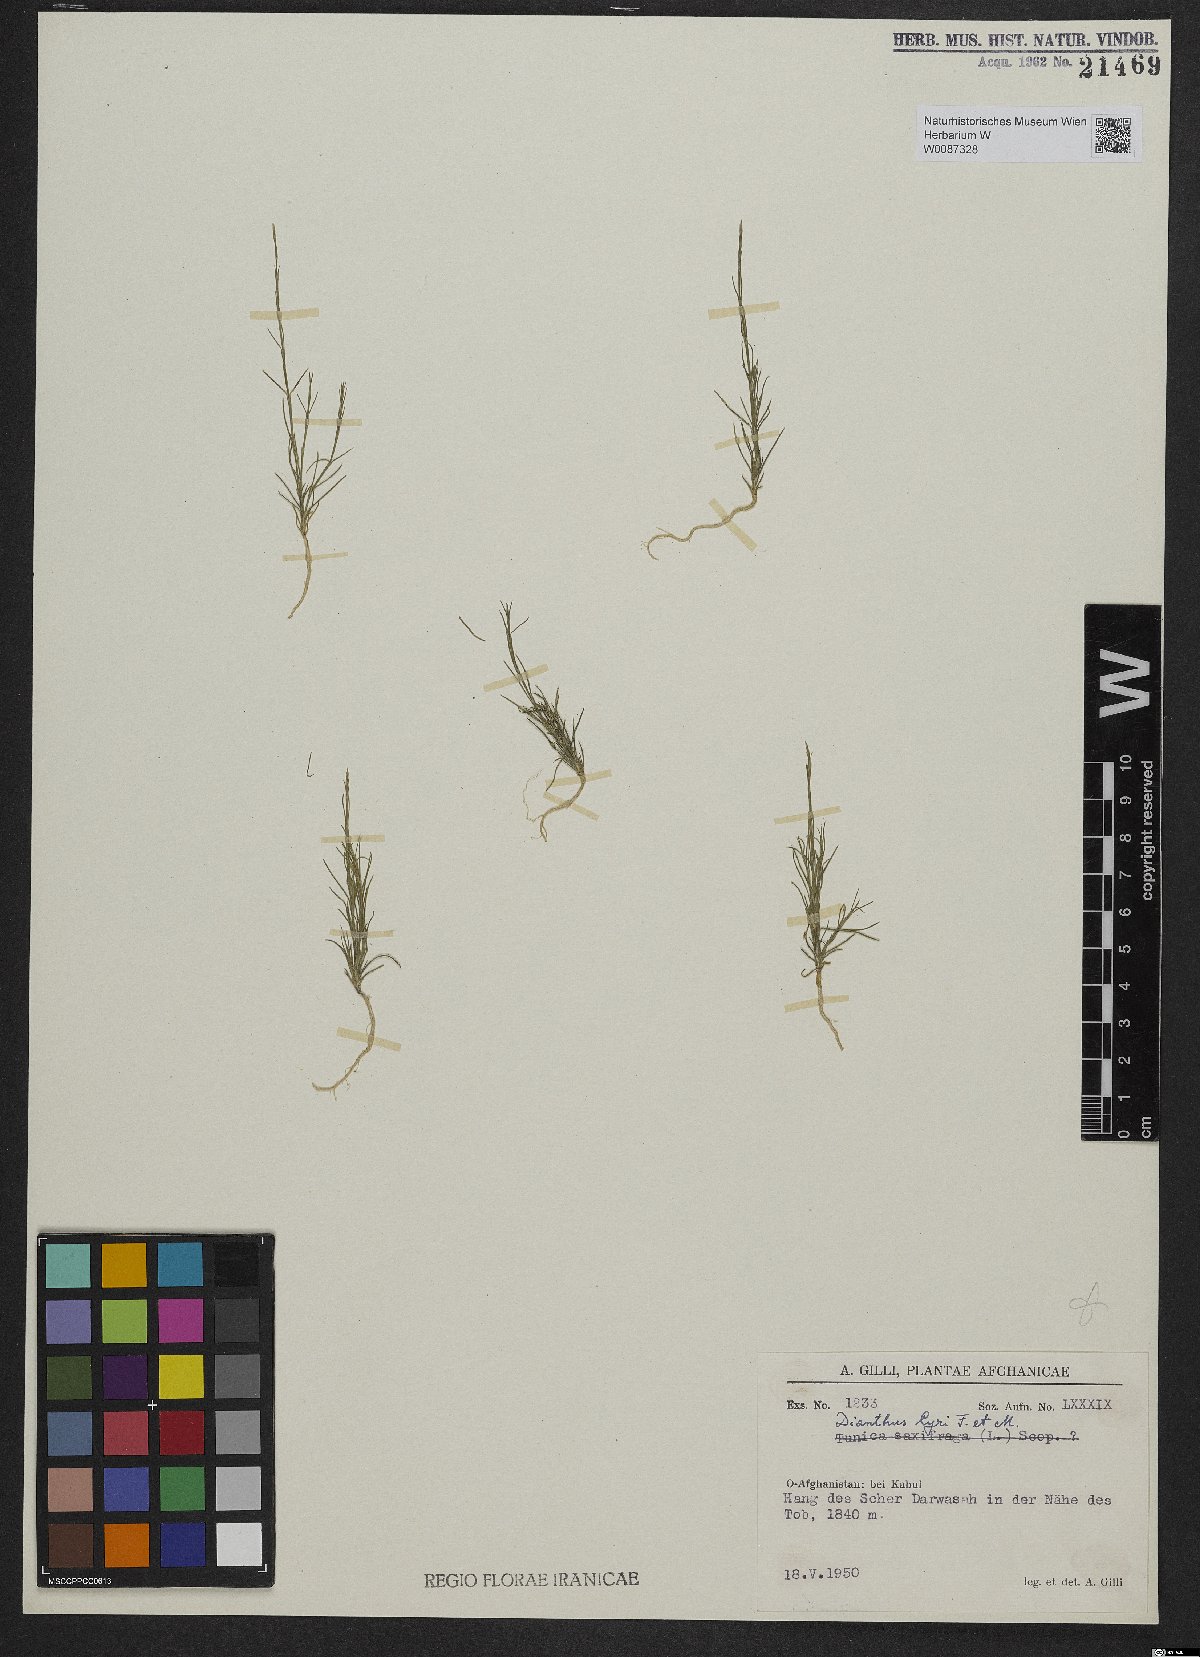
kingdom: Plantae
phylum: Tracheophyta
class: Magnoliopsida
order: Caryophyllales
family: Caryophyllaceae
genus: Dianthus
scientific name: Dianthus
